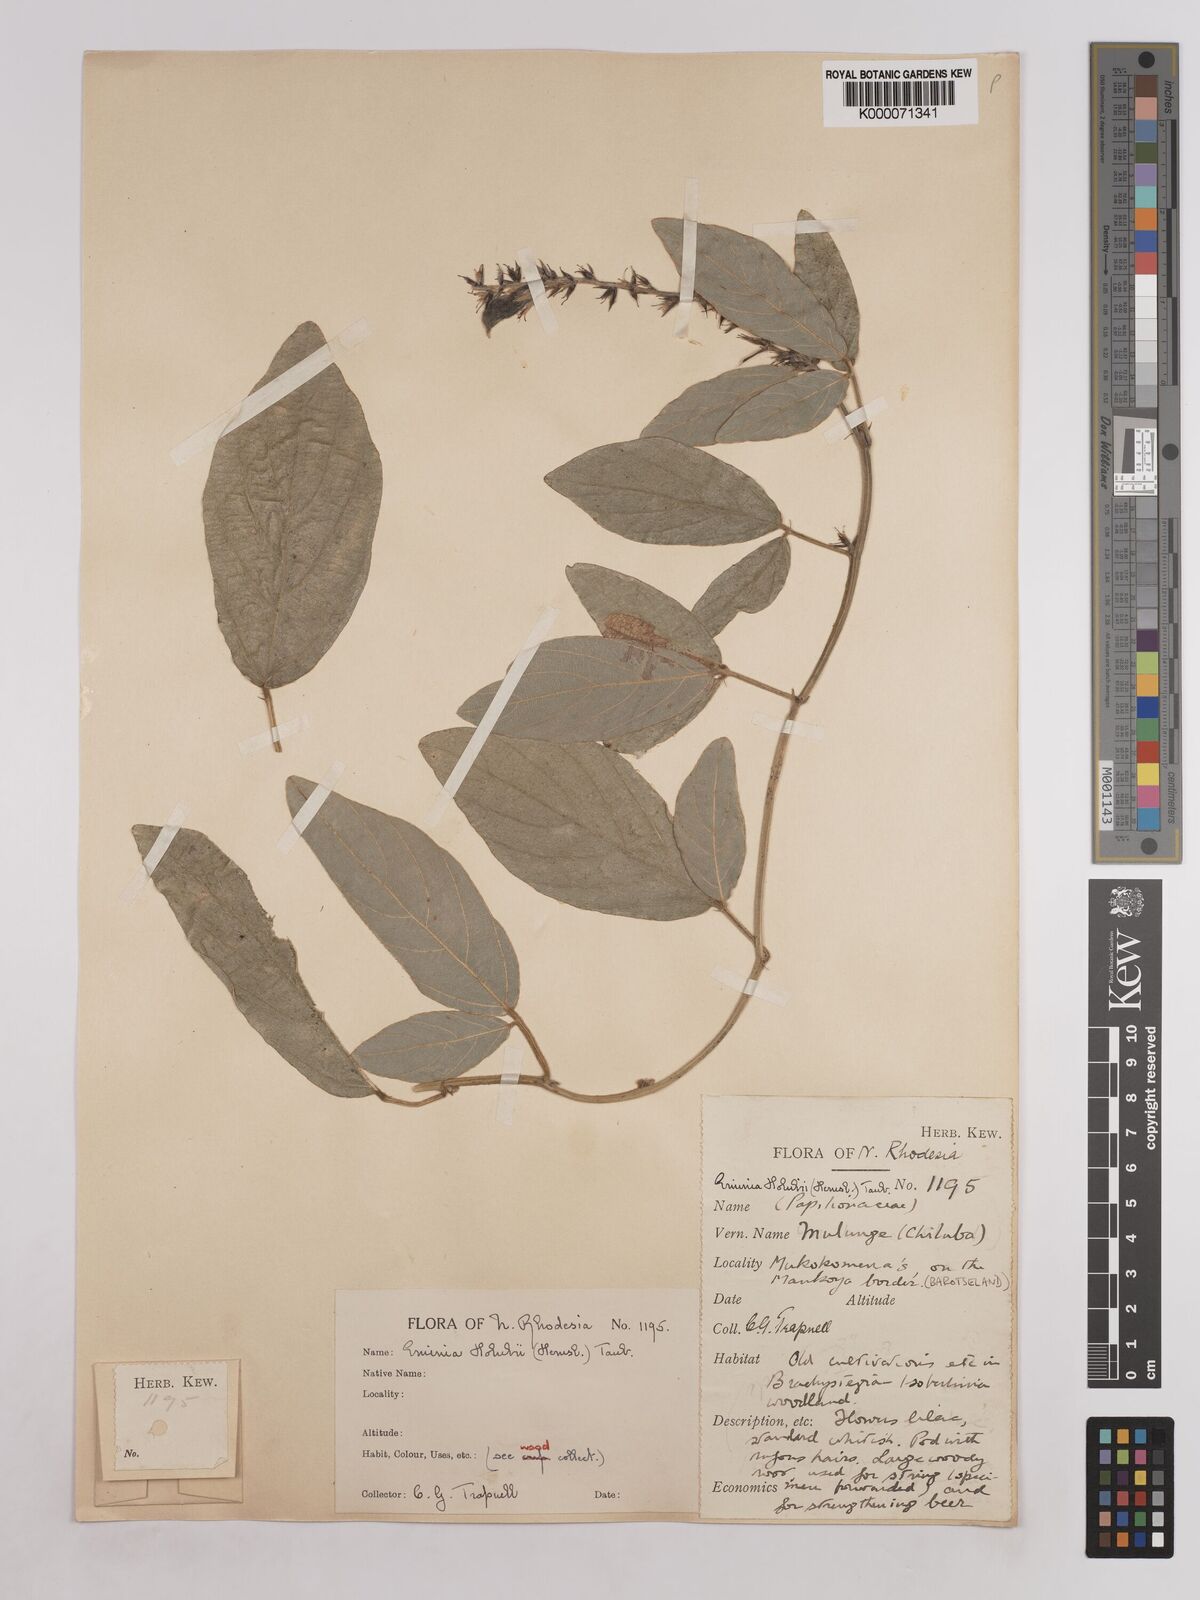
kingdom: Plantae
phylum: Tracheophyta
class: Magnoliopsida
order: Fabales
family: Fabaceae
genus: Eminia
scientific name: Eminia holubii
